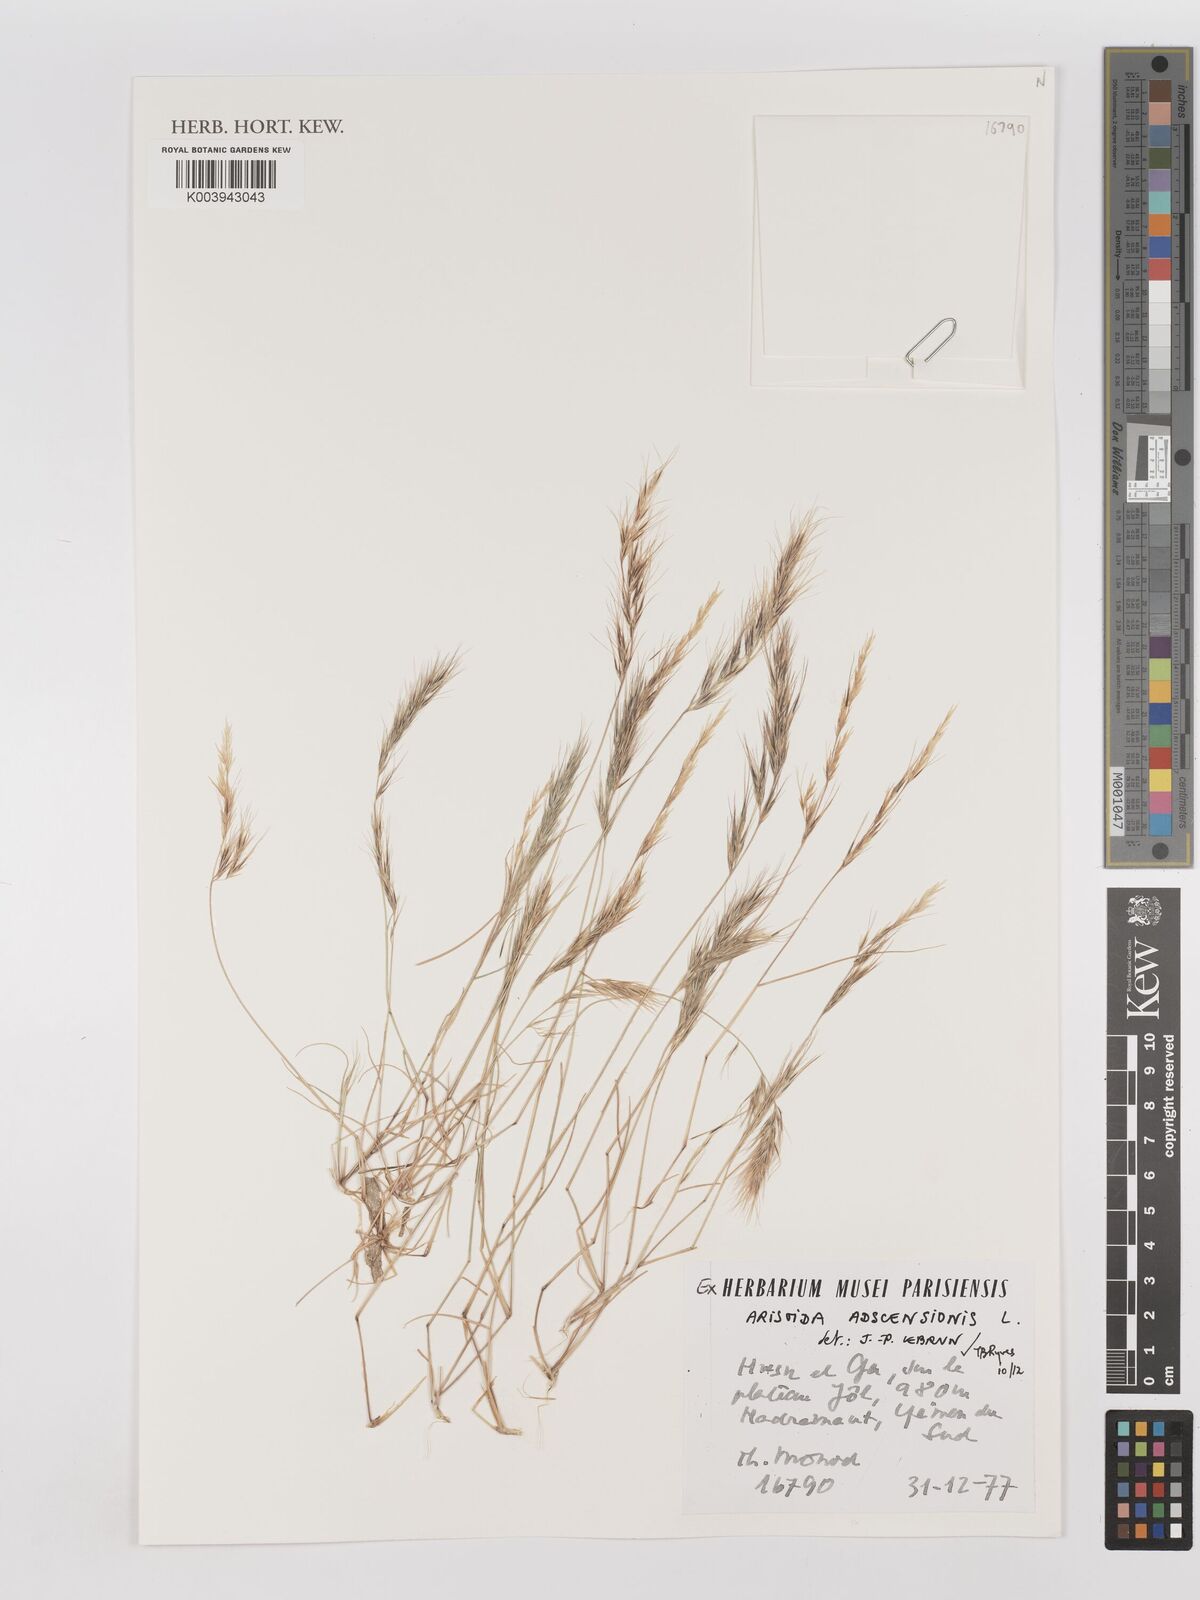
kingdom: Plantae
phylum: Tracheophyta
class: Liliopsida
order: Poales
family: Poaceae
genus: Aristida
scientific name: Aristida adscensionis
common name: Sixweeks threeawn
